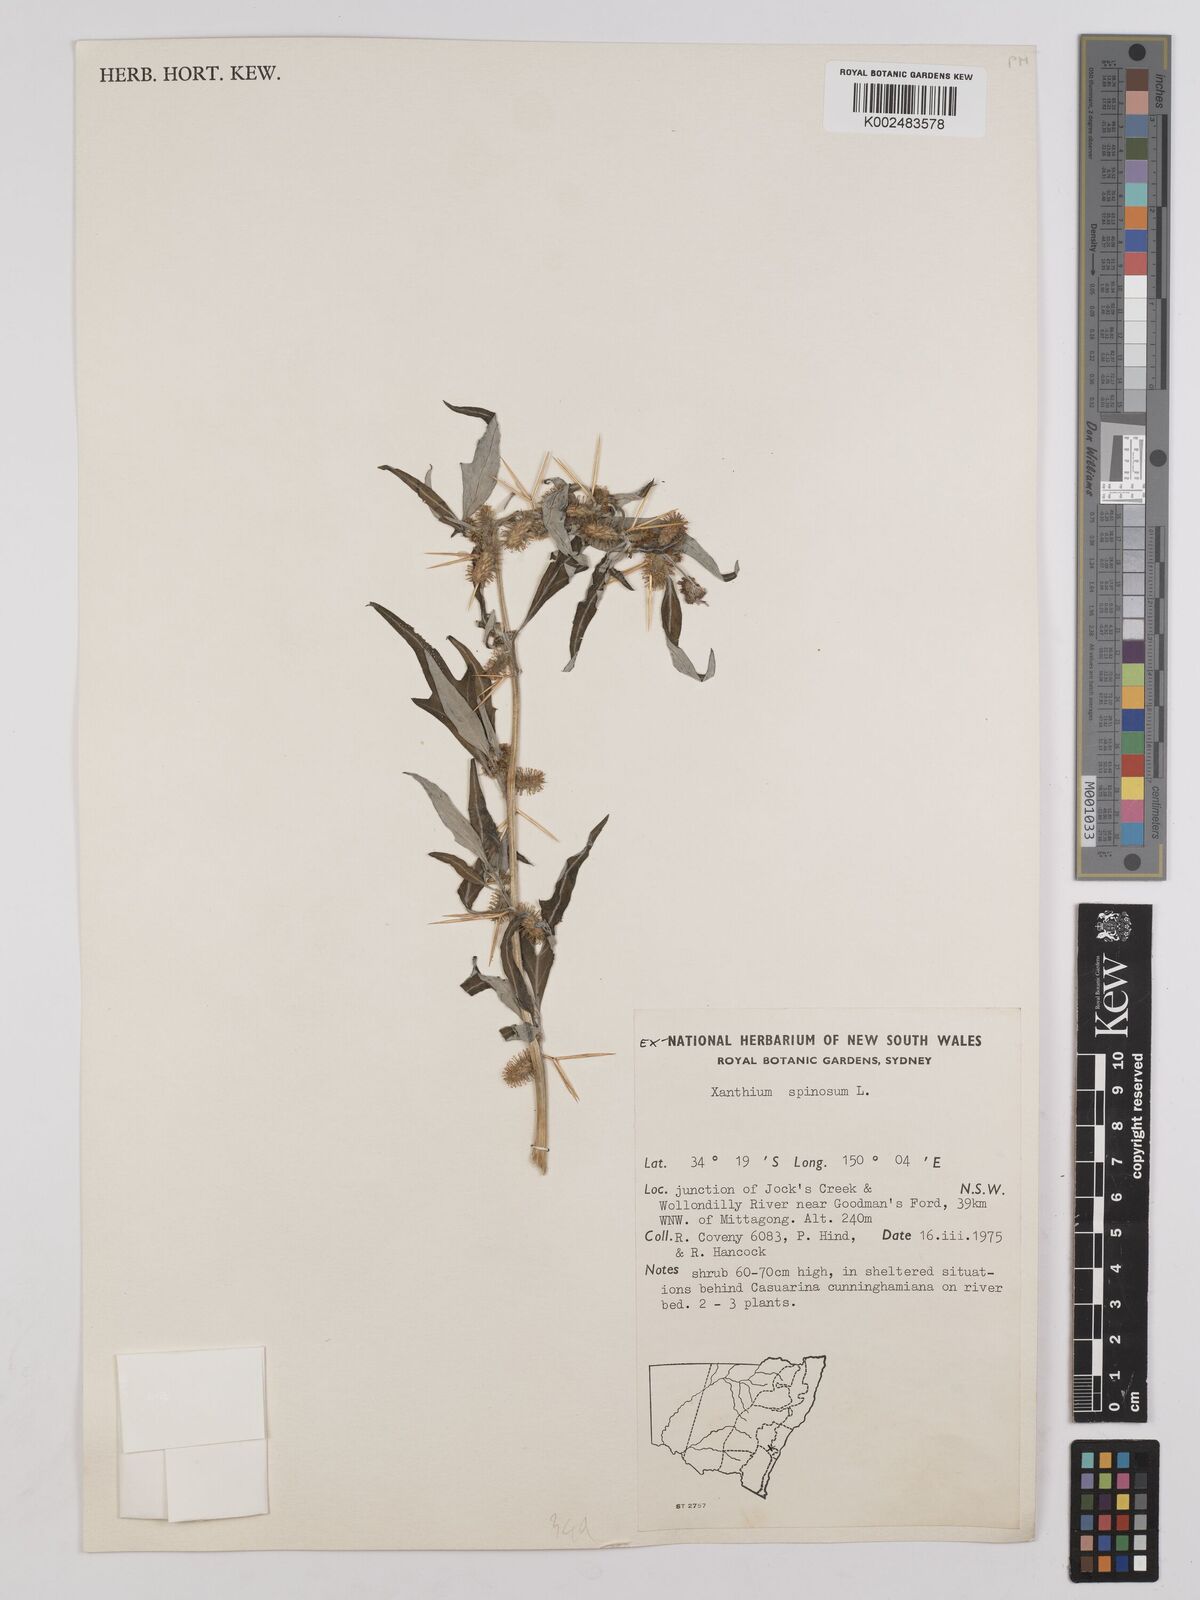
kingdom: Plantae
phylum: Tracheophyta
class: Magnoliopsida
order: Asterales
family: Asteraceae
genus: Xanthium
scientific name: Xanthium spinosum
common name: Spiny cocklebur
